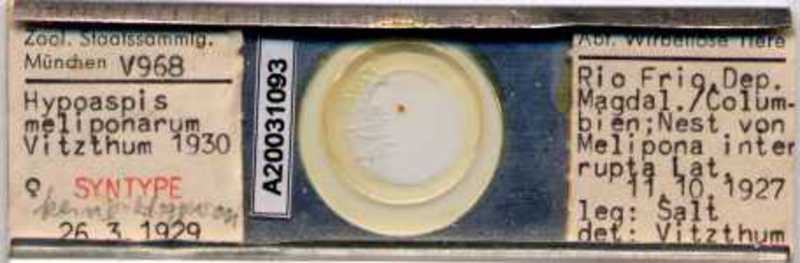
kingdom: Animalia
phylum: Arthropoda
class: Arachnida
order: Mesostigmata
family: Laelapidae
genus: Hypoaspis
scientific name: Hypoaspis
